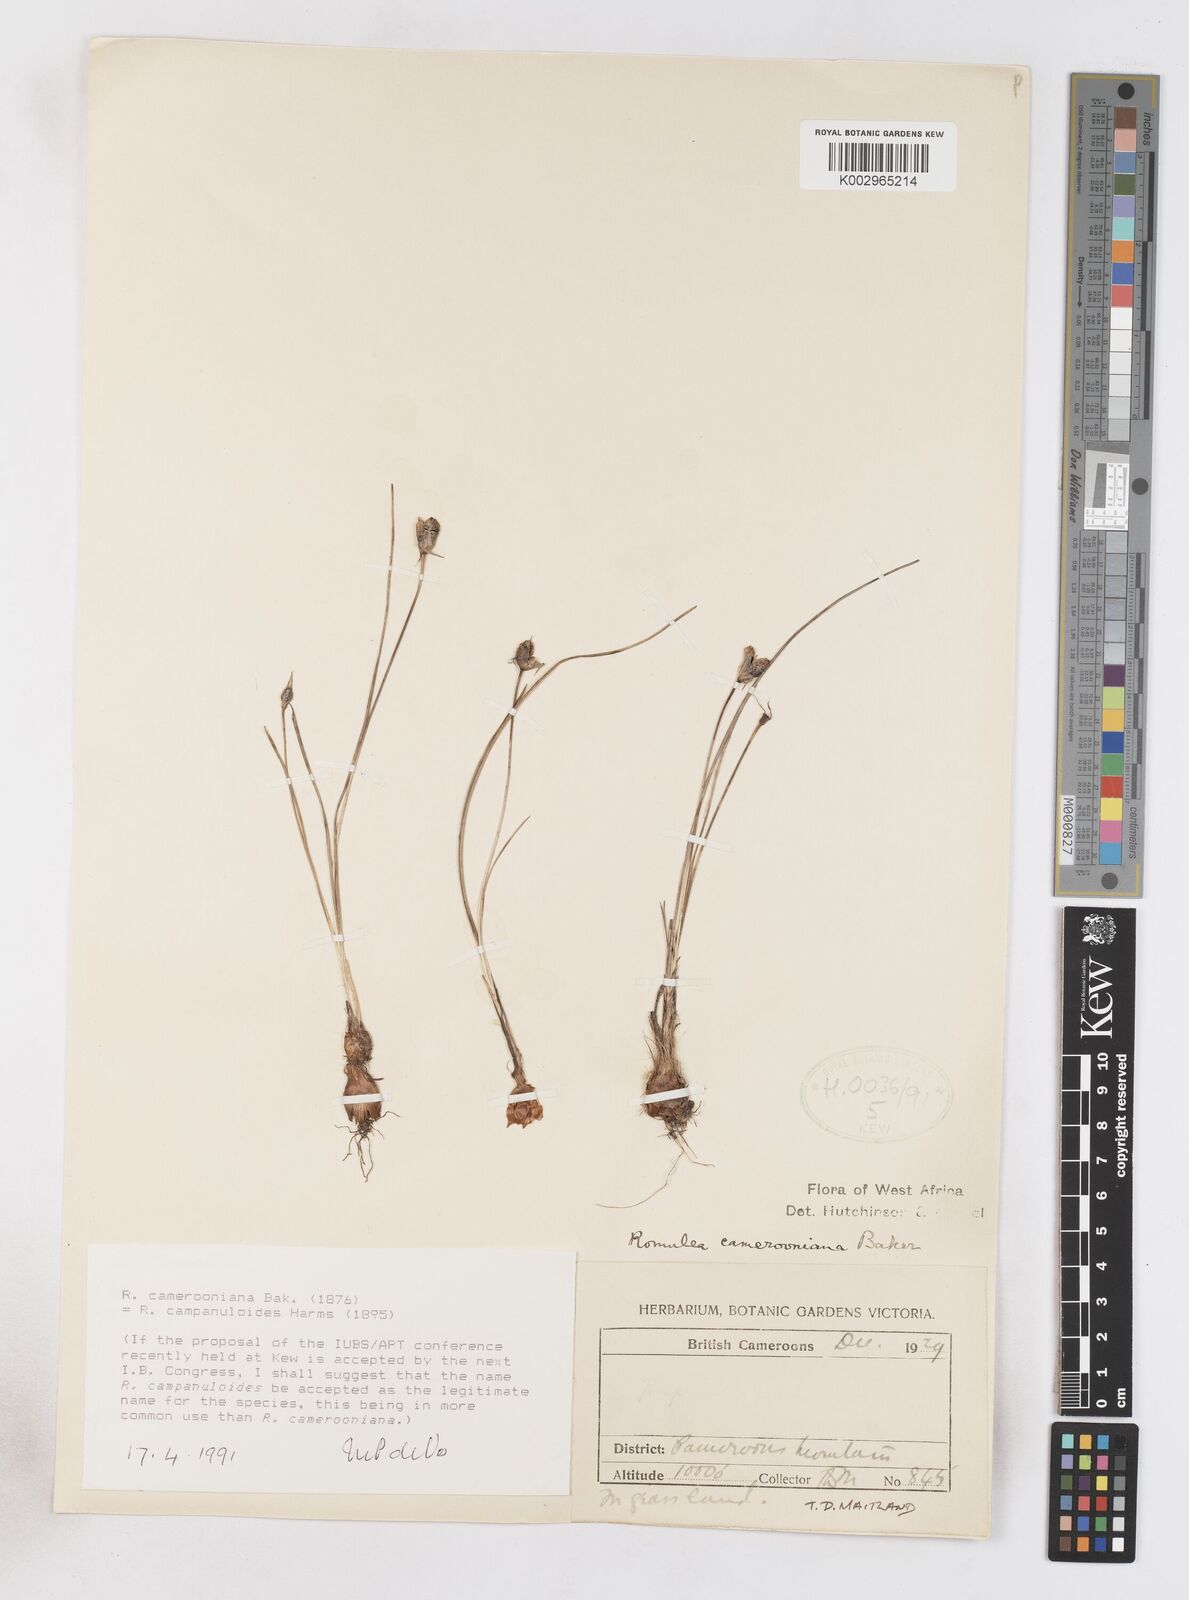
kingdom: Plantae
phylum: Tracheophyta
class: Liliopsida
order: Asparagales
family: Iridaceae
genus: Romulea
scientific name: Romulea camerooniana
